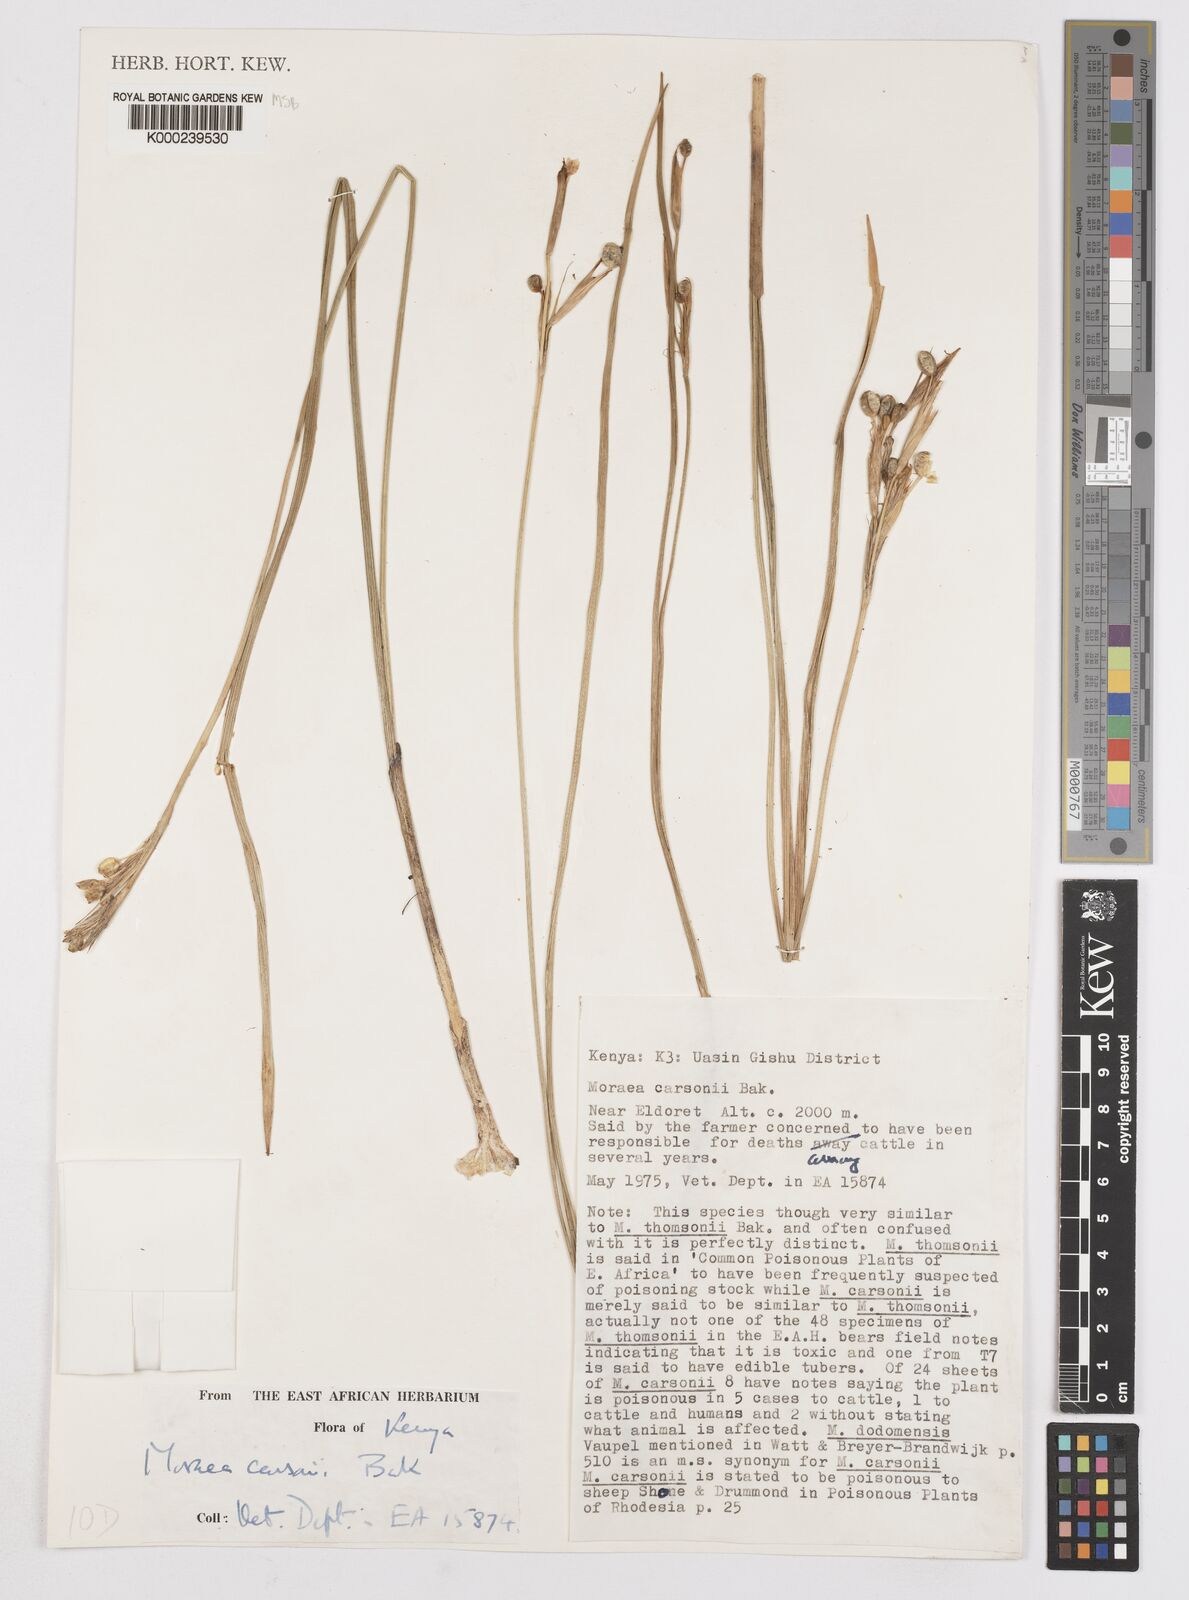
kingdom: Plantae
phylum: Tracheophyta
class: Liliopsida
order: Asparagales
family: Iridaceae
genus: Moraea
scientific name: Moraea
